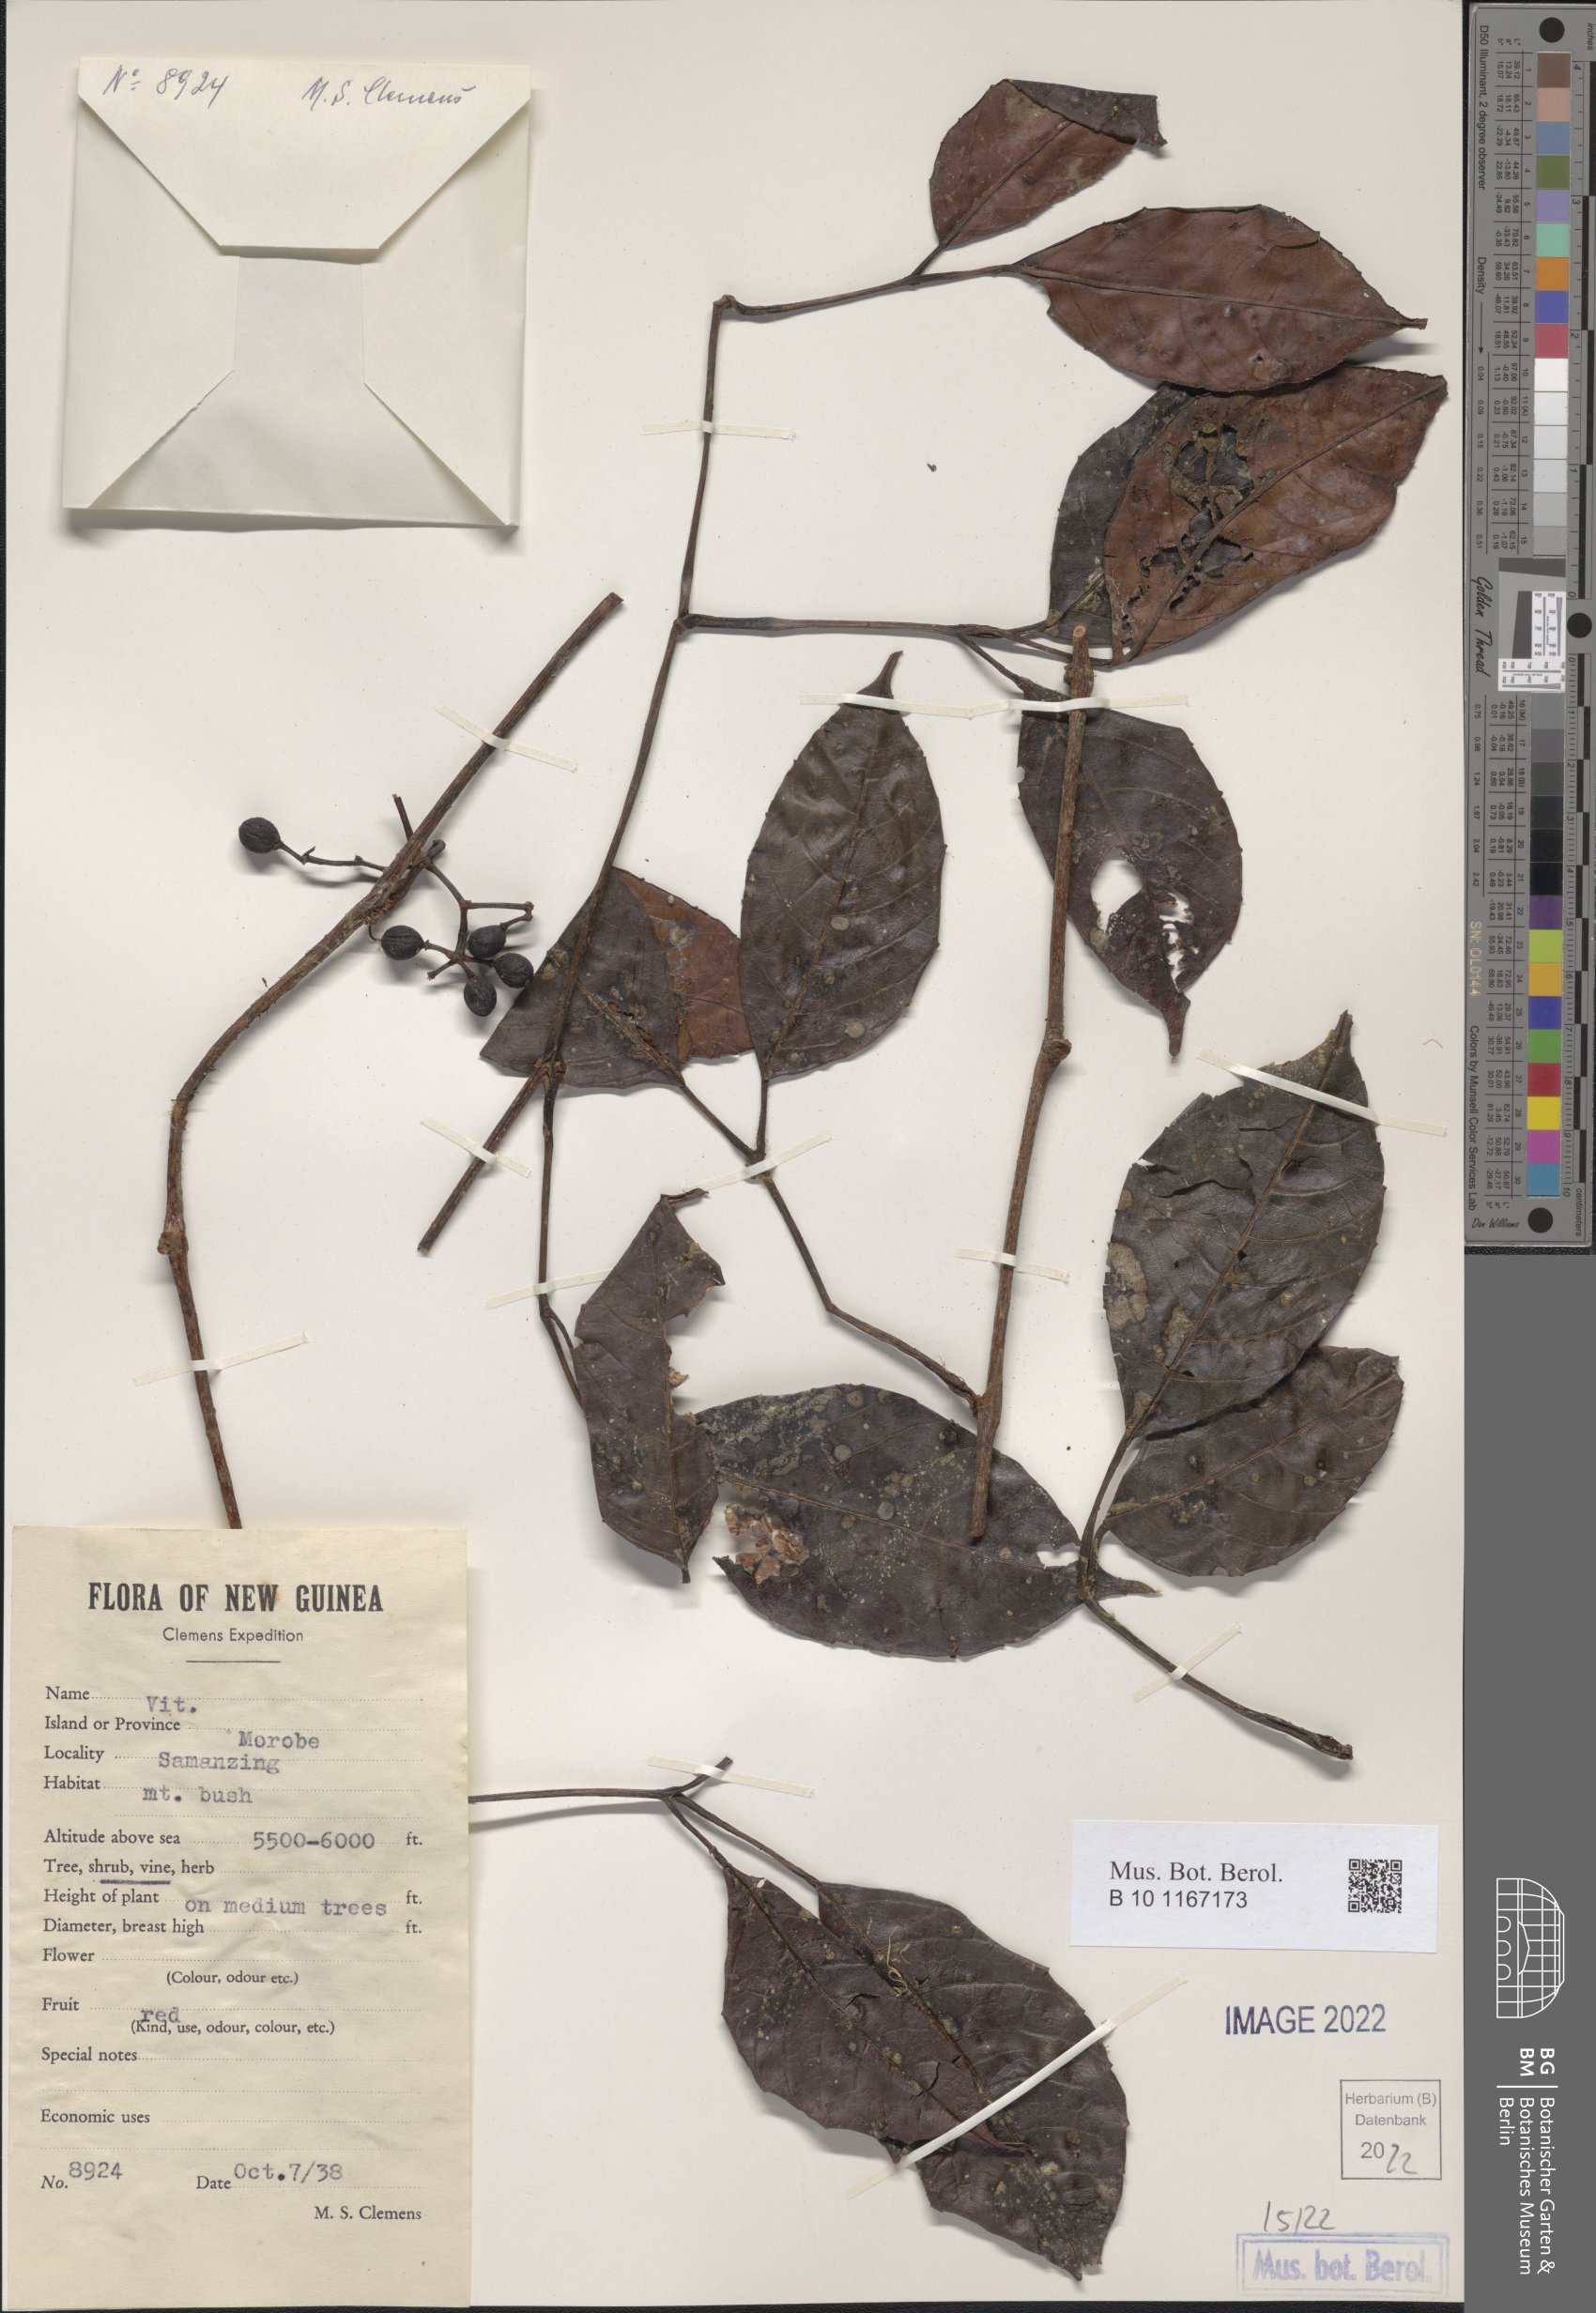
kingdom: Plantae
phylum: Tracheophyta
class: Magnoliopsida
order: Vitales
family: Vitaceae
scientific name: Vitaceae
